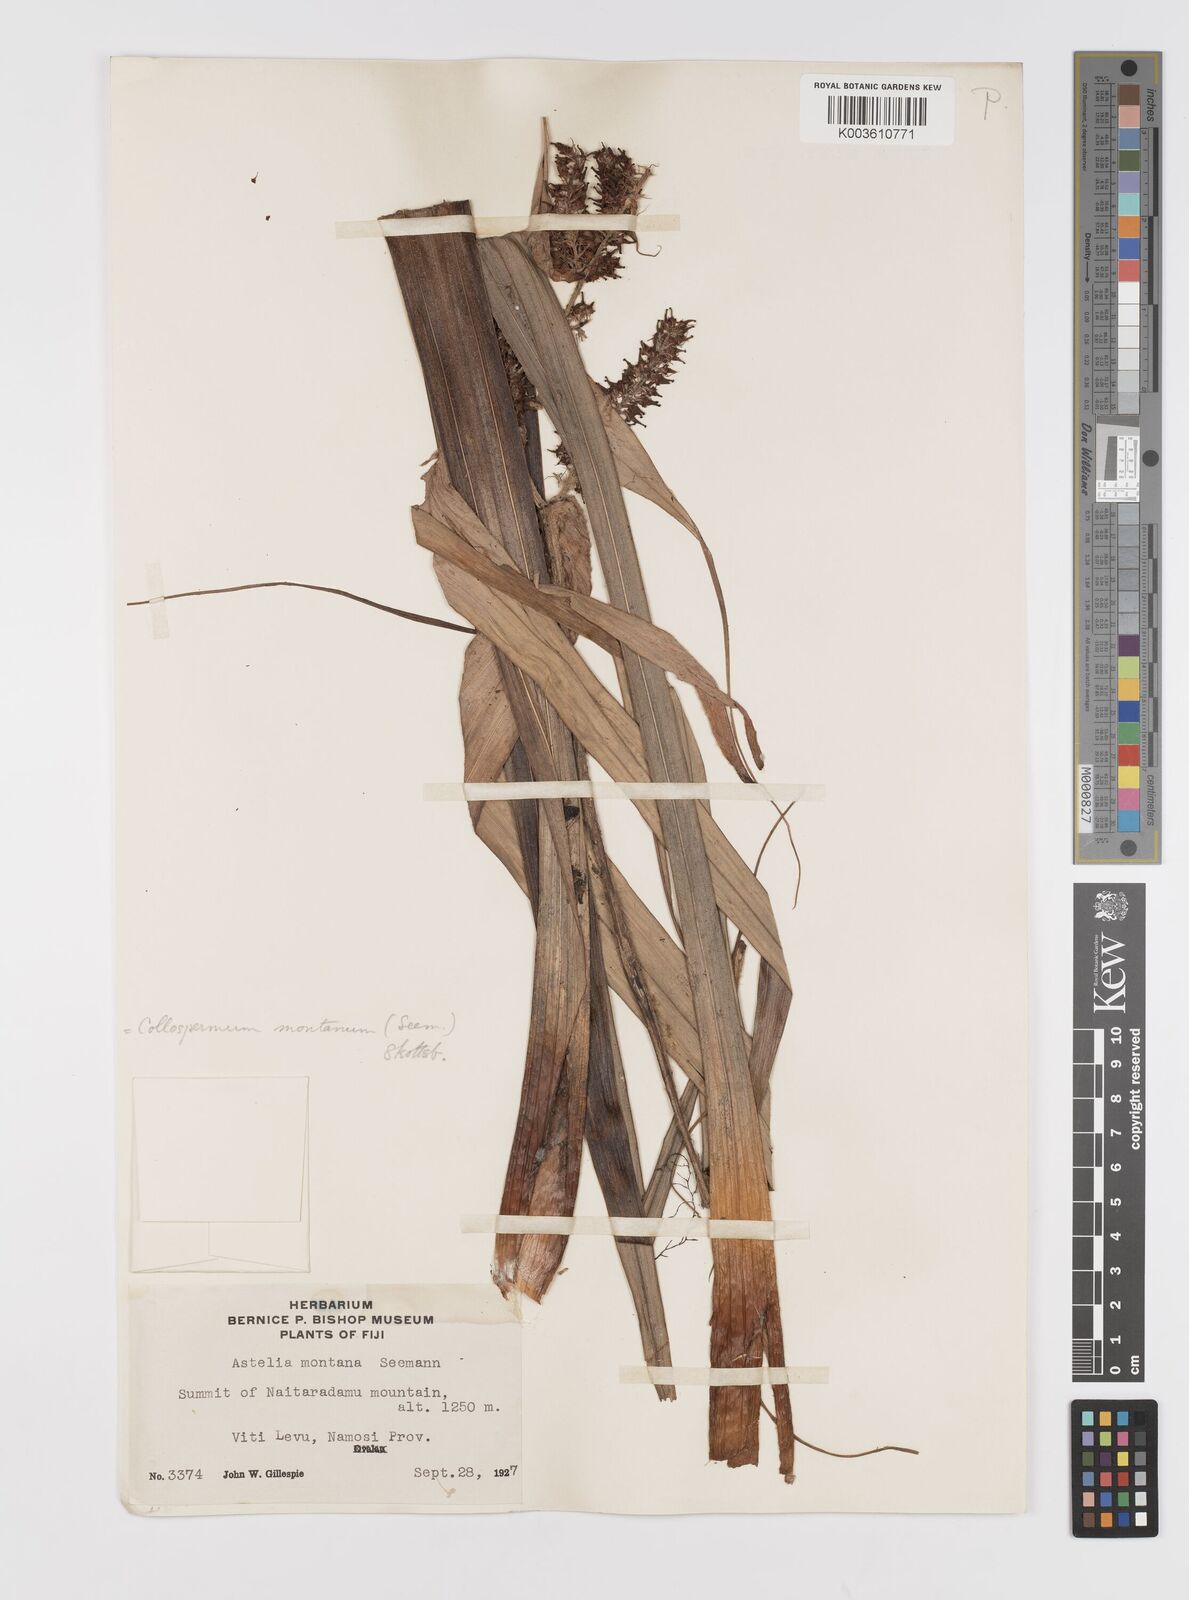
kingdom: Plantae
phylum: Tracheophyta
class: Liliopsida
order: Asparagales
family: Asteliaceae
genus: Astelia
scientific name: Astelia montana
